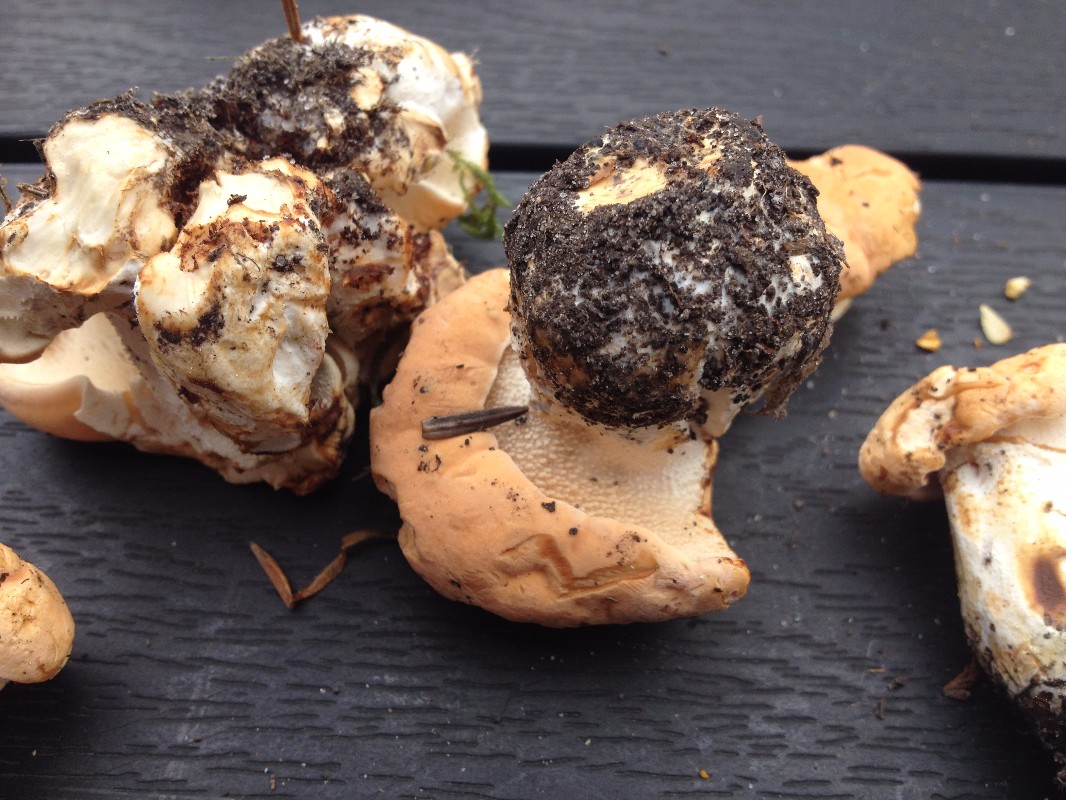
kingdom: Fungi
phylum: Basidiomycota
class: Agaricomycetes
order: Cantharellales
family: Hydnaceae
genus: Hydnum
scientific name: Hydnum
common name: pigsvamp
